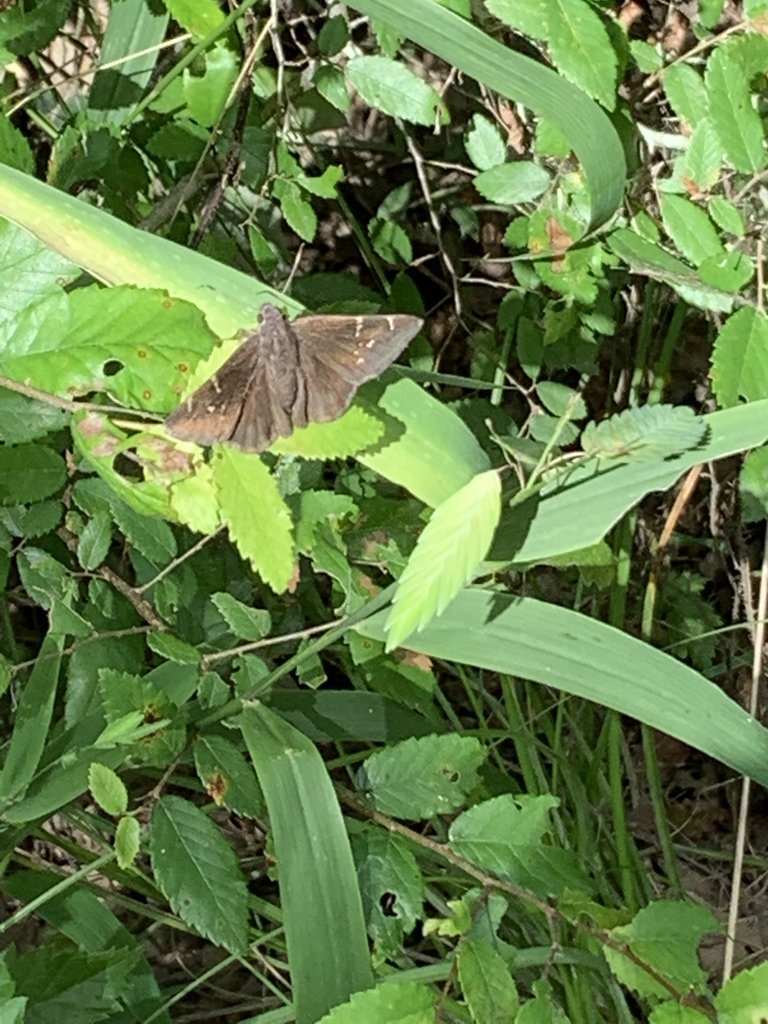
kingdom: Animalia
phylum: Arthropoda
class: Insecta
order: Lepidoptera
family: Hesperiidae
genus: Thorybes
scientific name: Thorybes
